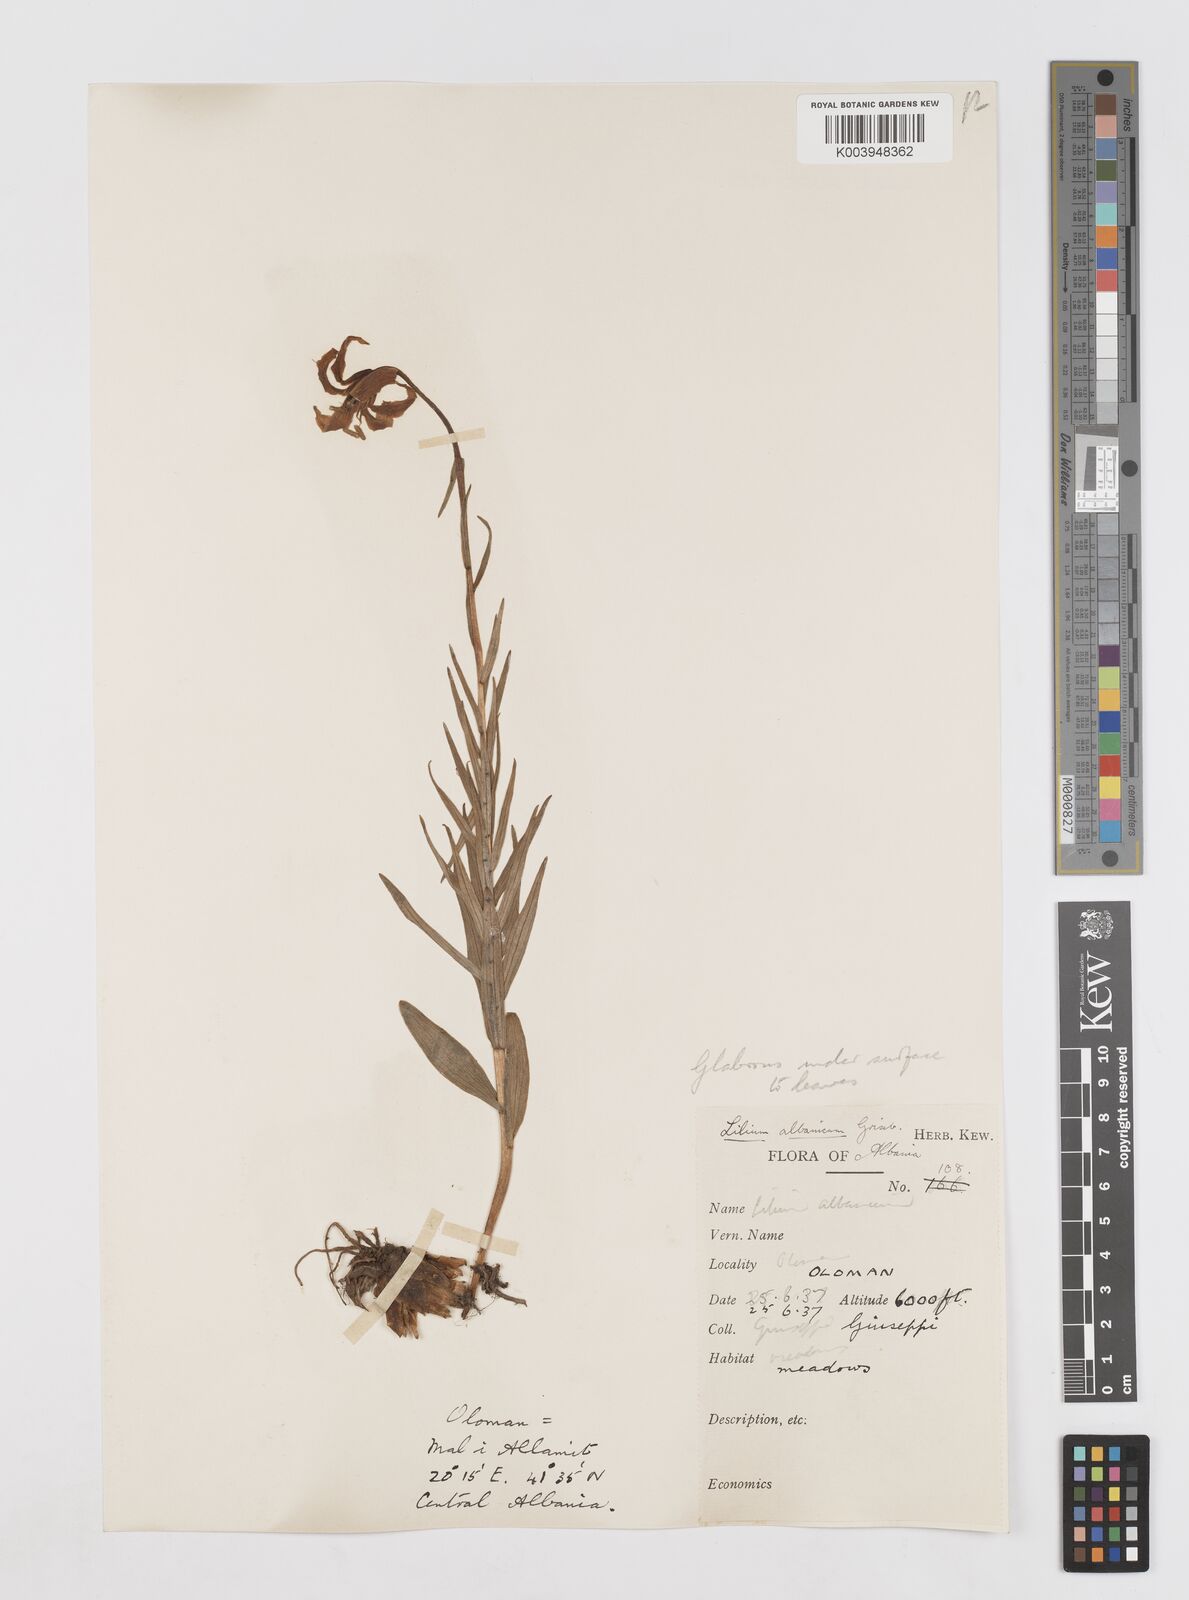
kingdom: Plantae
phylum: Tracheophyta
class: Liliopsida
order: Liliales
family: Liliaceae
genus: Lilium
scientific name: Lilium albanicum
